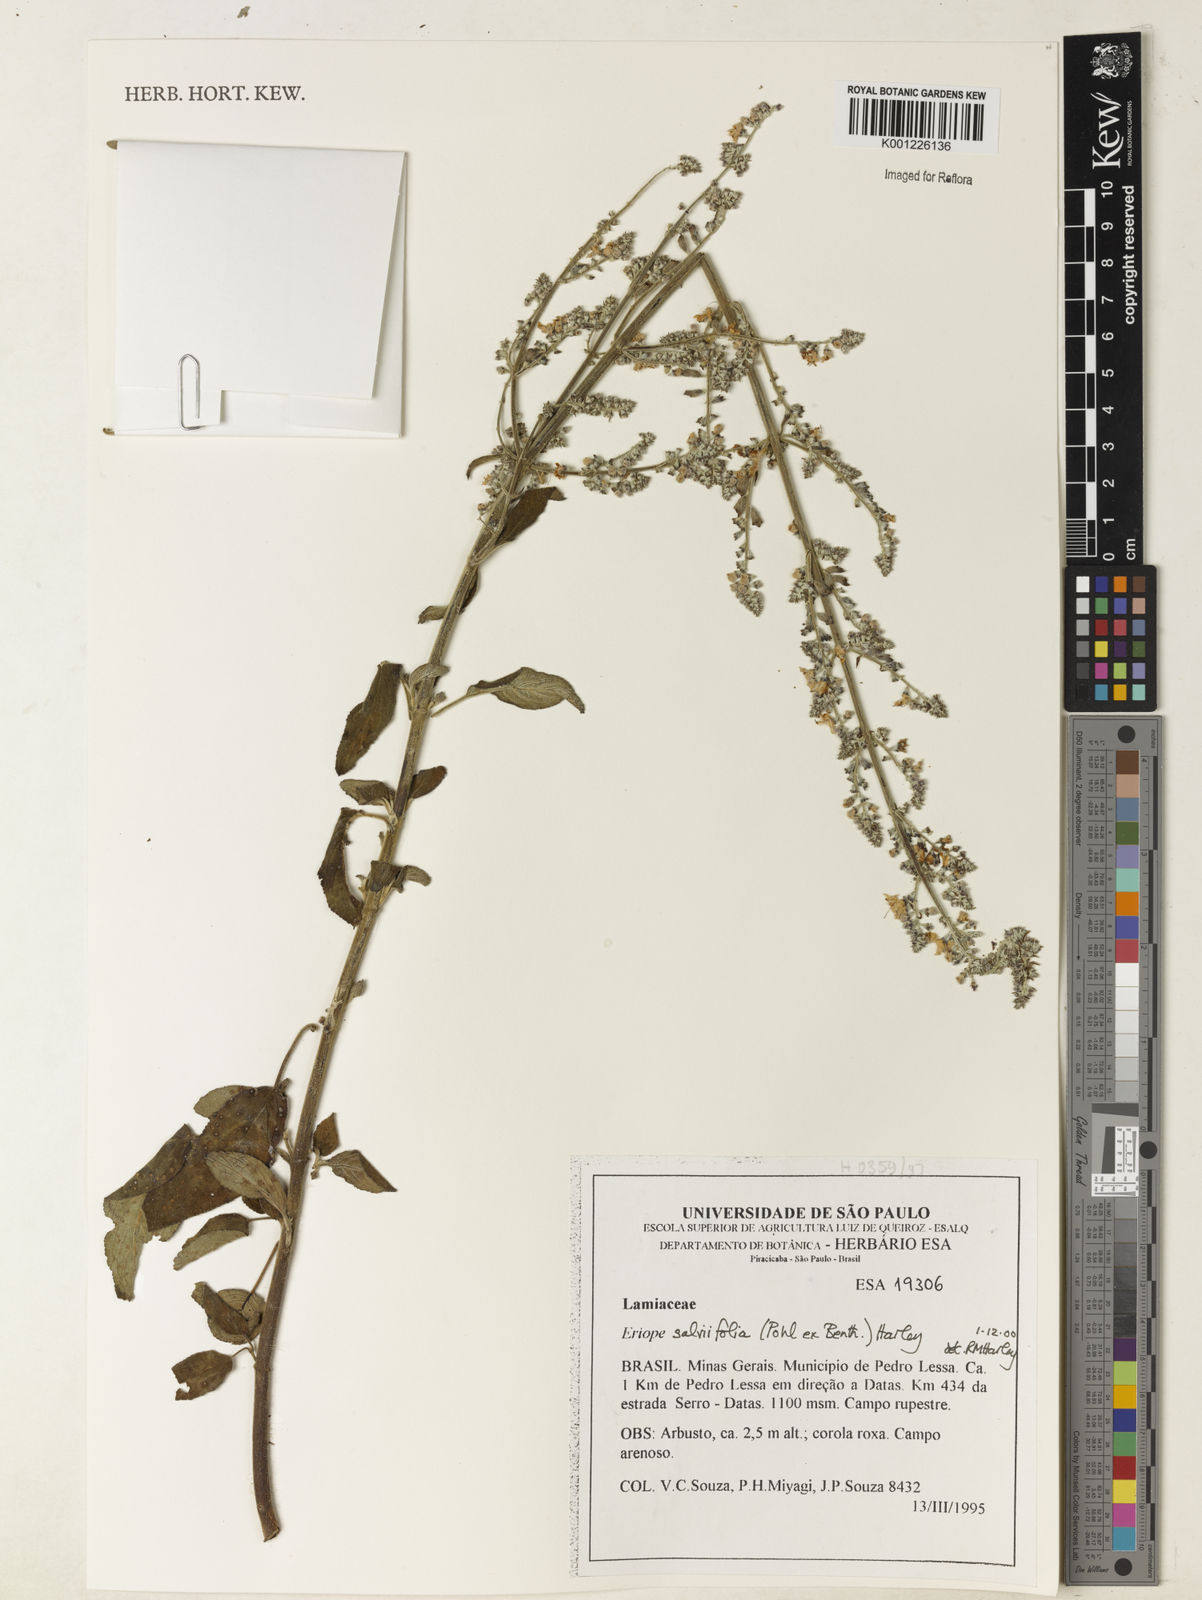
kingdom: Plantae
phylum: Tracheophyta
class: Magnoliopsida
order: Lamiales
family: Lamiaceae
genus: Eriope
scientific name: Eriope salviifolia
